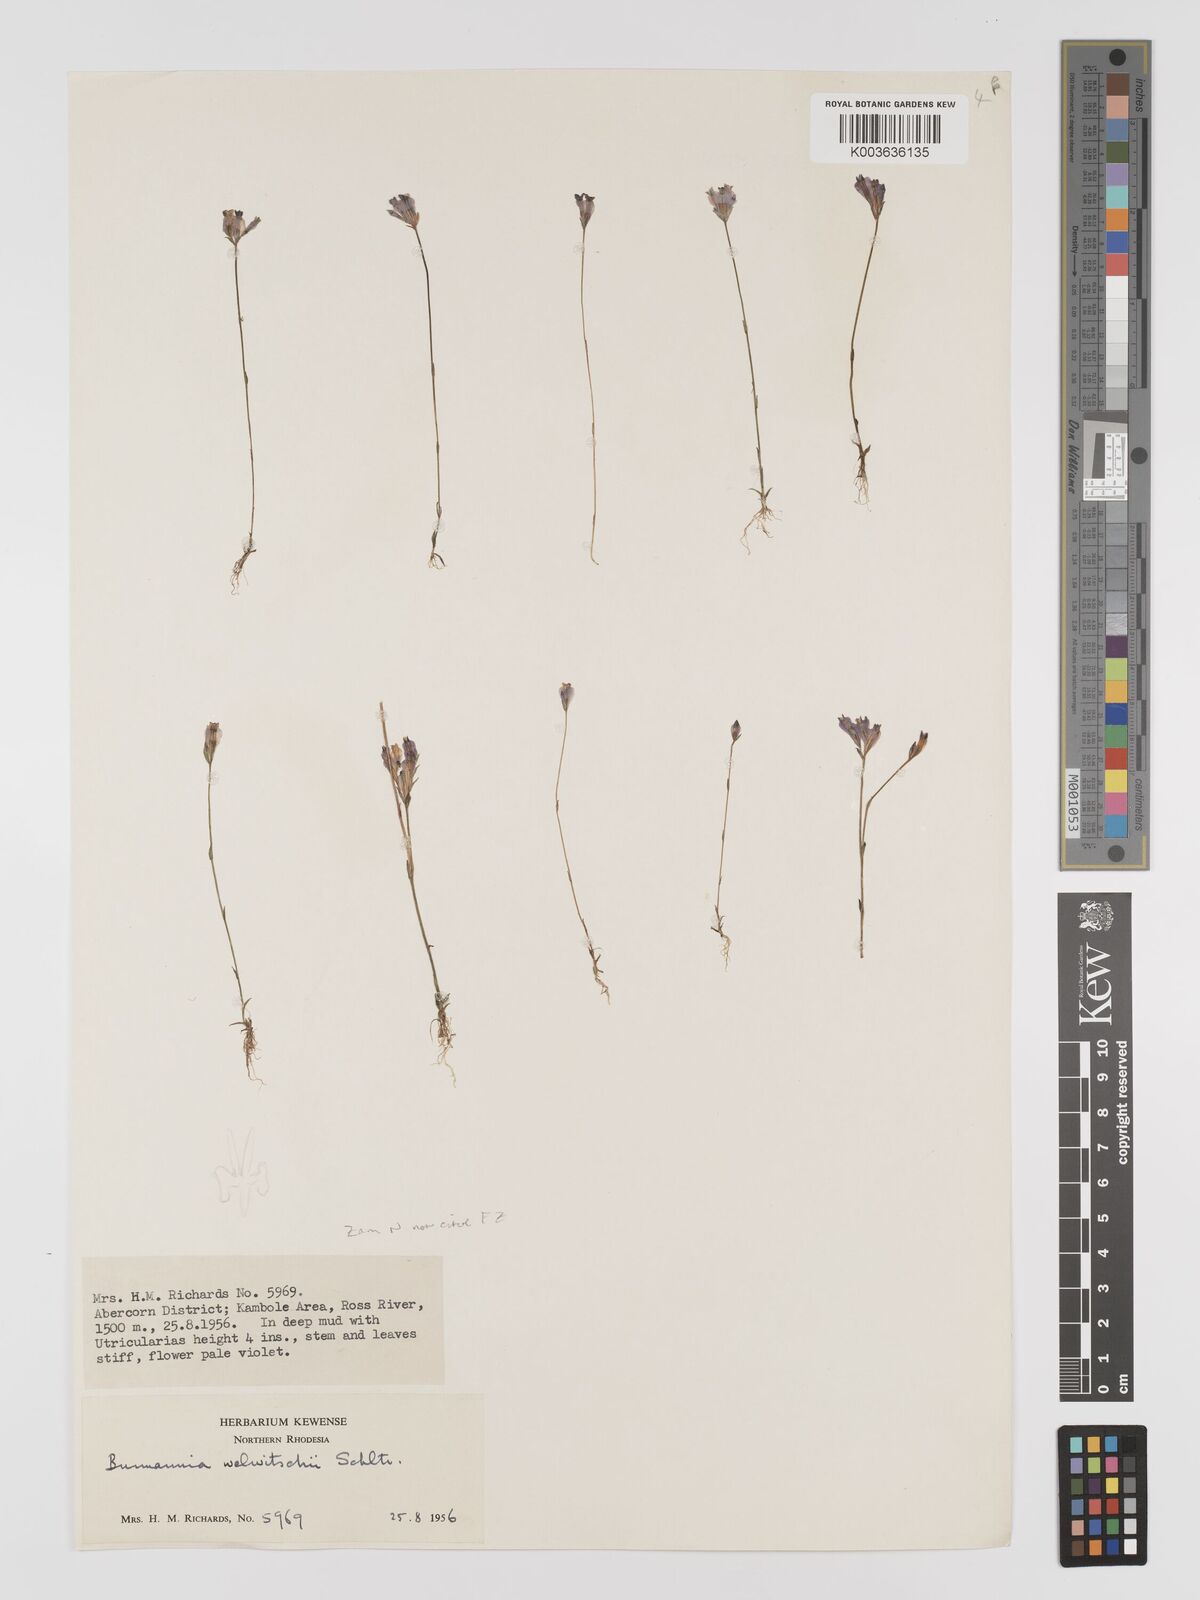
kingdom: Plantae
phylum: Tracheophyta
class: Liliopsida
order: Dioscoreales
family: Burmanniaceae
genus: Burmannia
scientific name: Burmannia madagascariensis
